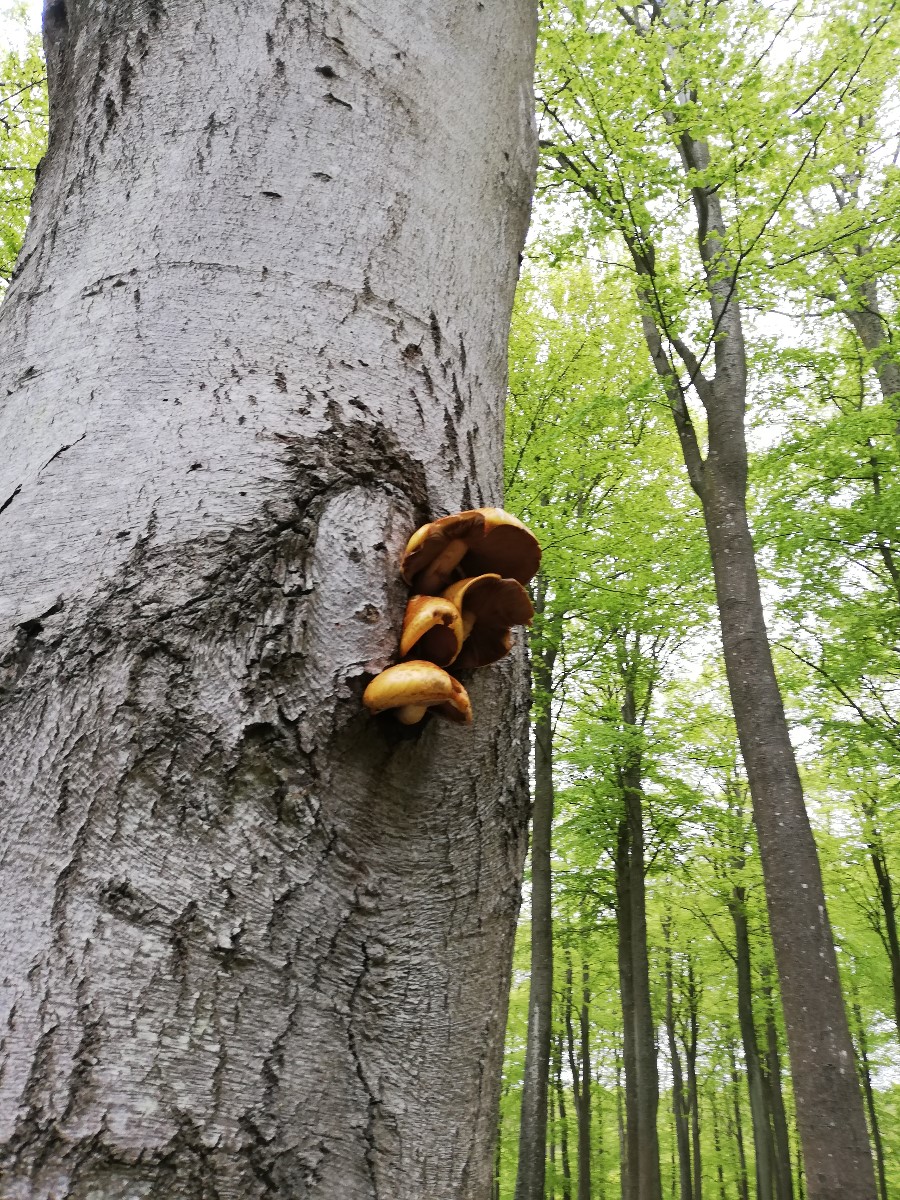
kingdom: Fungi
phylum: Basidiomycota
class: Agaricomycetes
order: Agaricales
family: Strophariaceae
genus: Pholiota
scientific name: Pholiota adiposa
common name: højtsiddende skælhat
